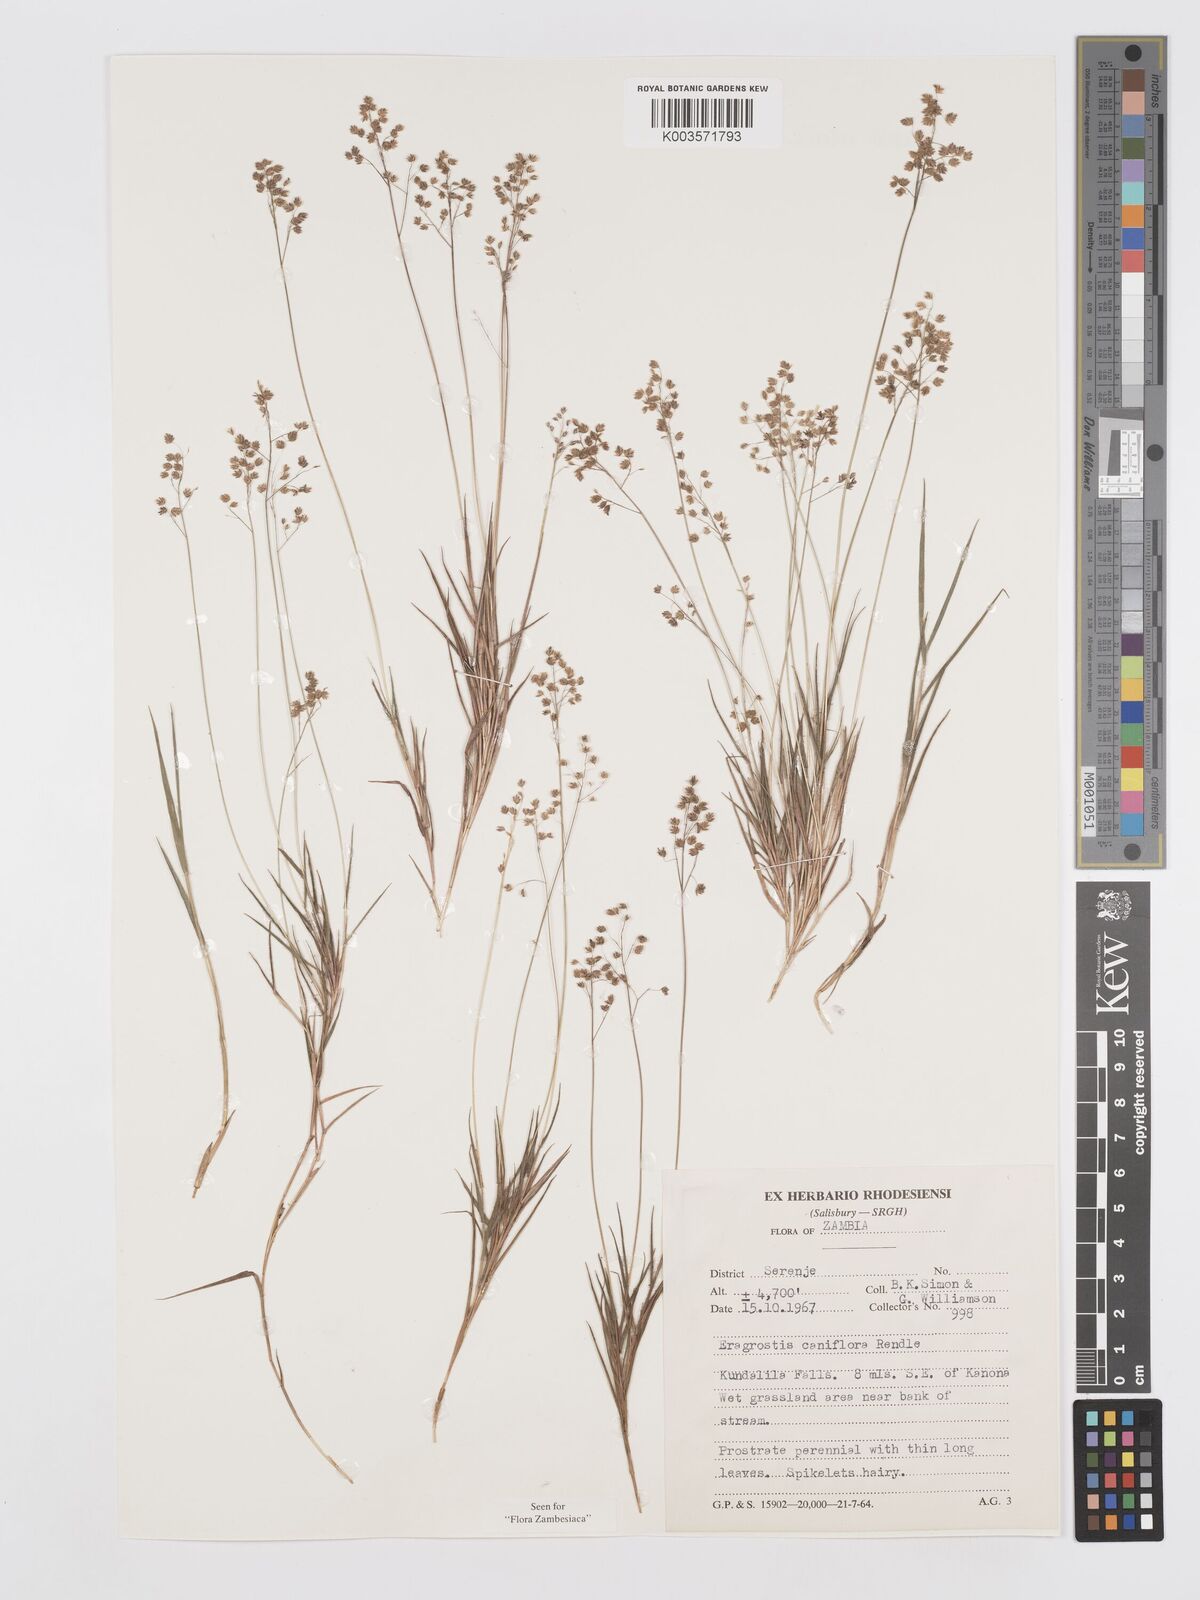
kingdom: Plantae
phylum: Tracheophyta
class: Liliopsida
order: Poales
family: Poaceae
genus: Eragrostis
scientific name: Eragrostis caniflora
